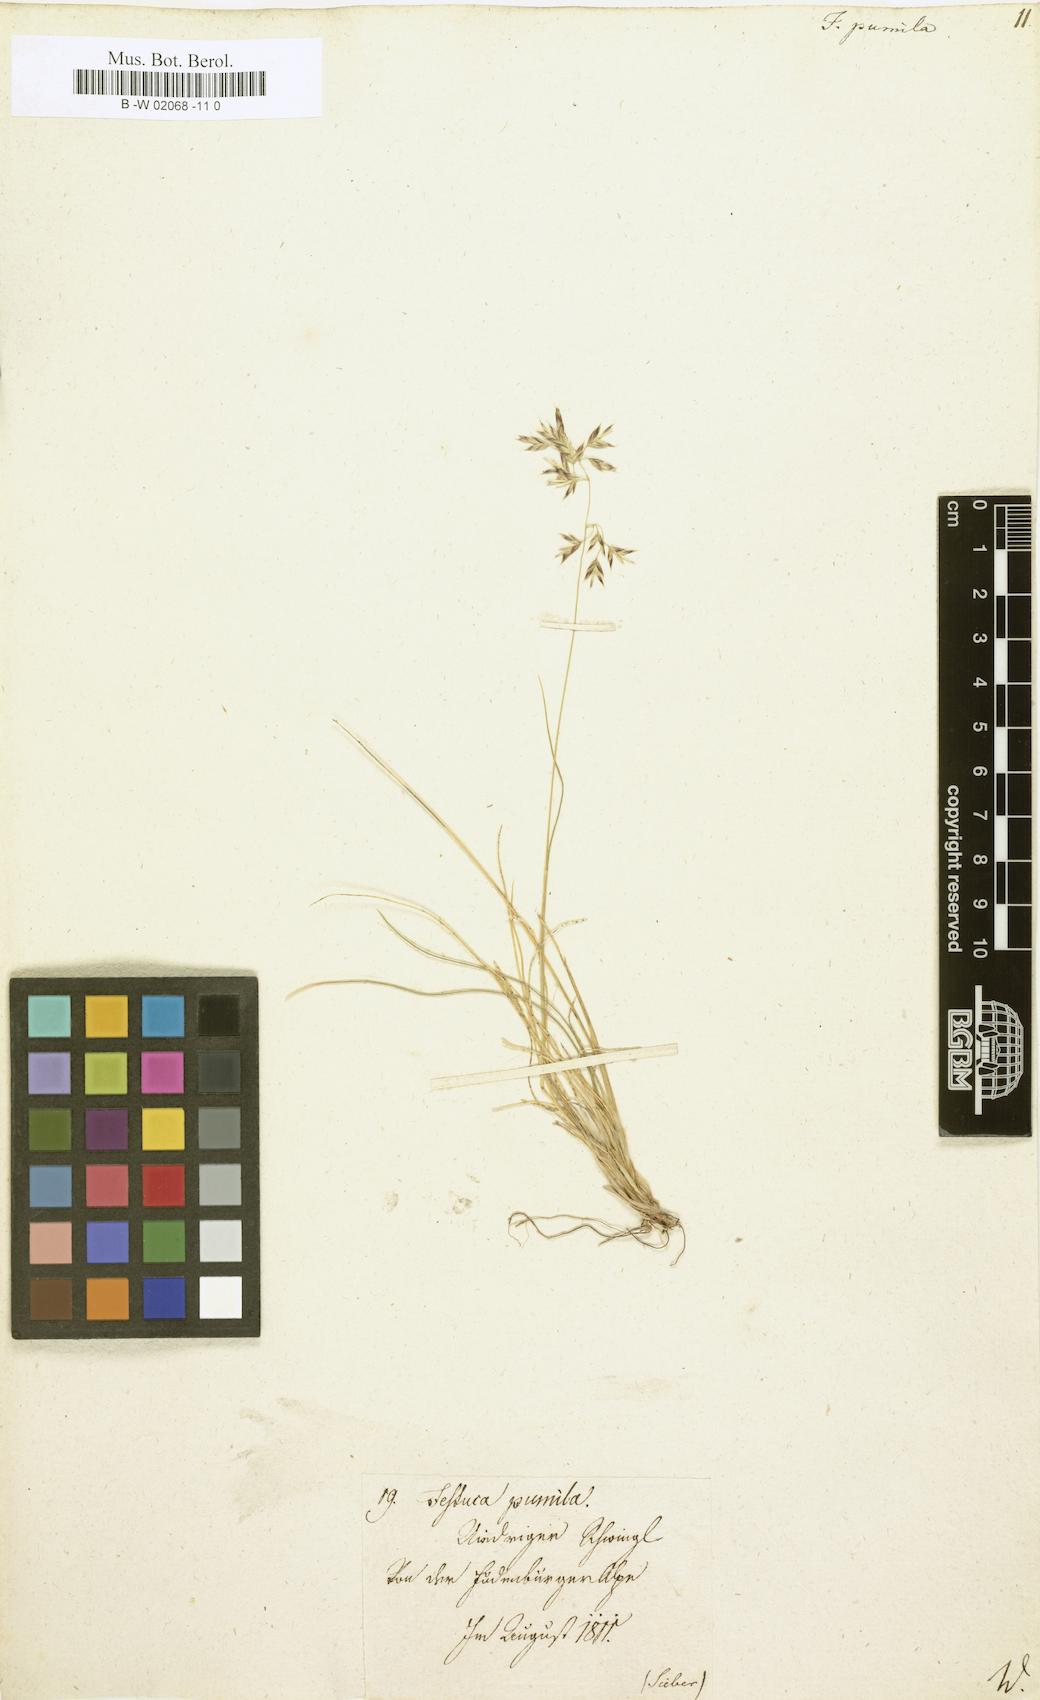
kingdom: Plantae
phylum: Tracheophyta
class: Liliopsida
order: Poales
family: Poaceae
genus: Festuca
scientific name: Festuca
